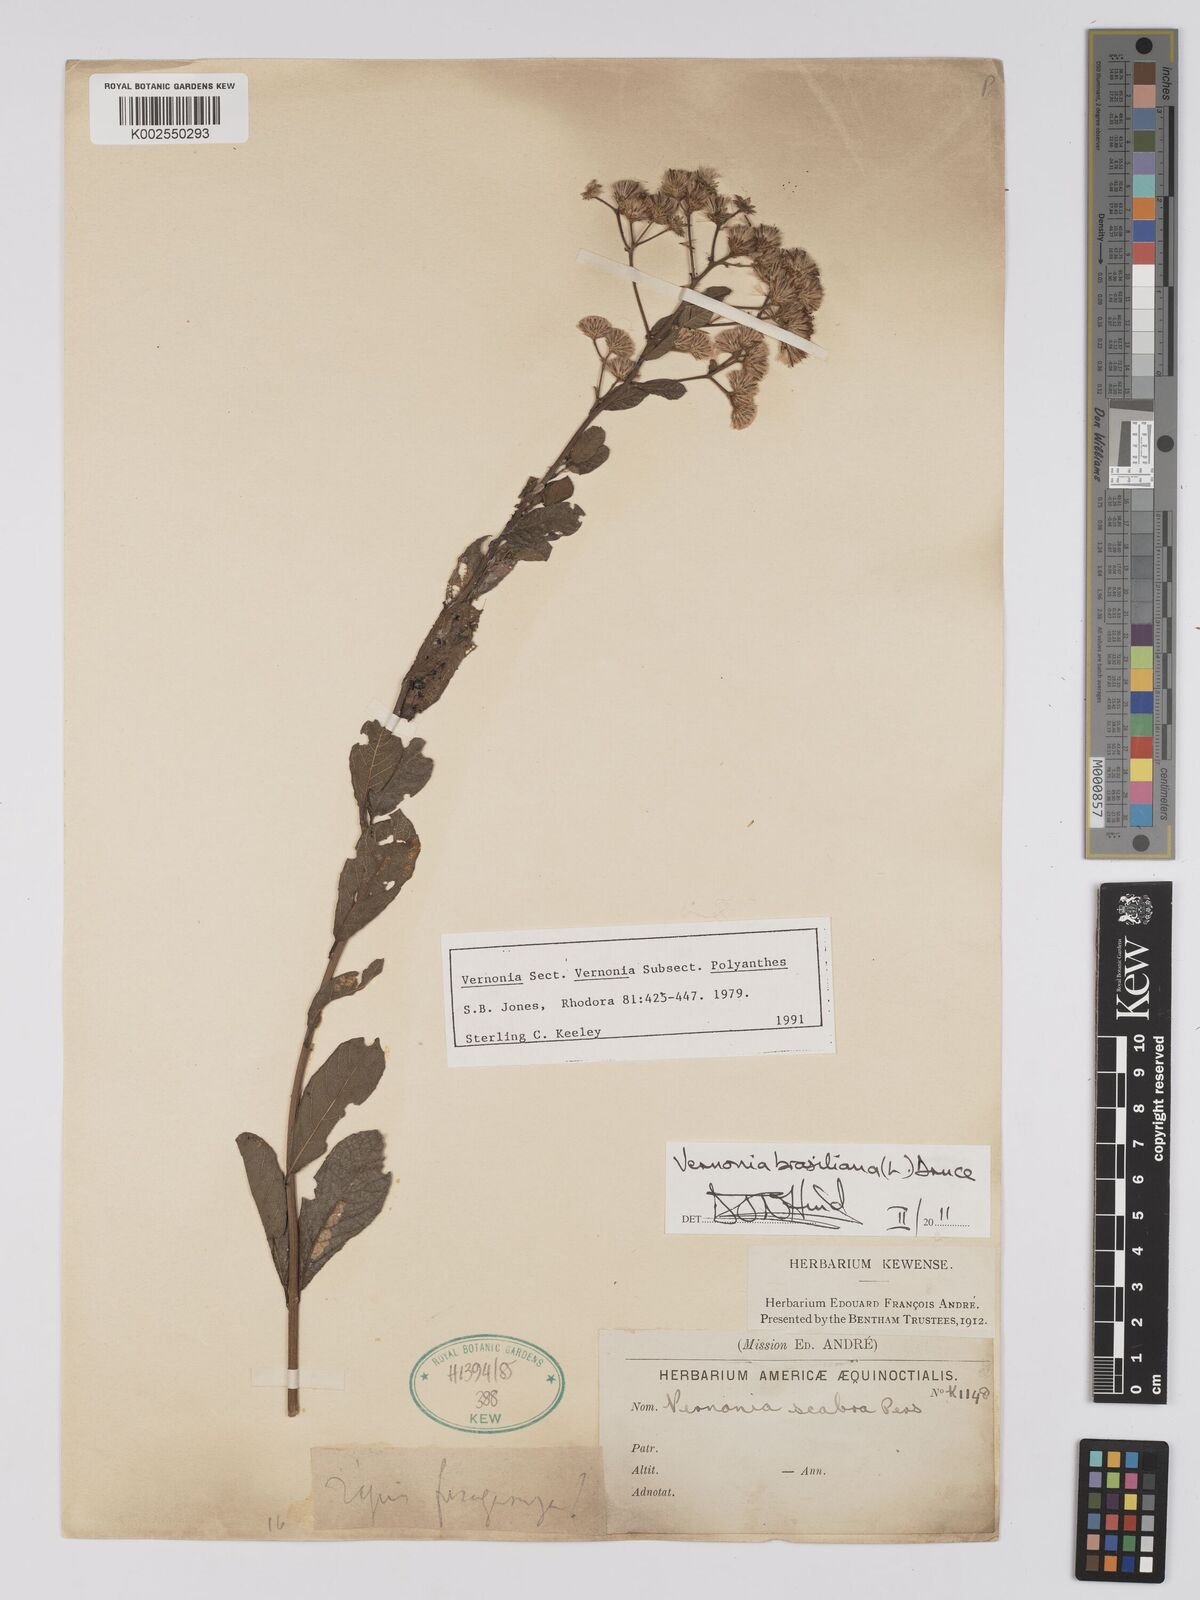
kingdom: Plantae
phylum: Tracheophyta
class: Magnoliopsida
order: Asterales
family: Asteraceae
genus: Vernonanthura
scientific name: Vernonanthura brasiliana
